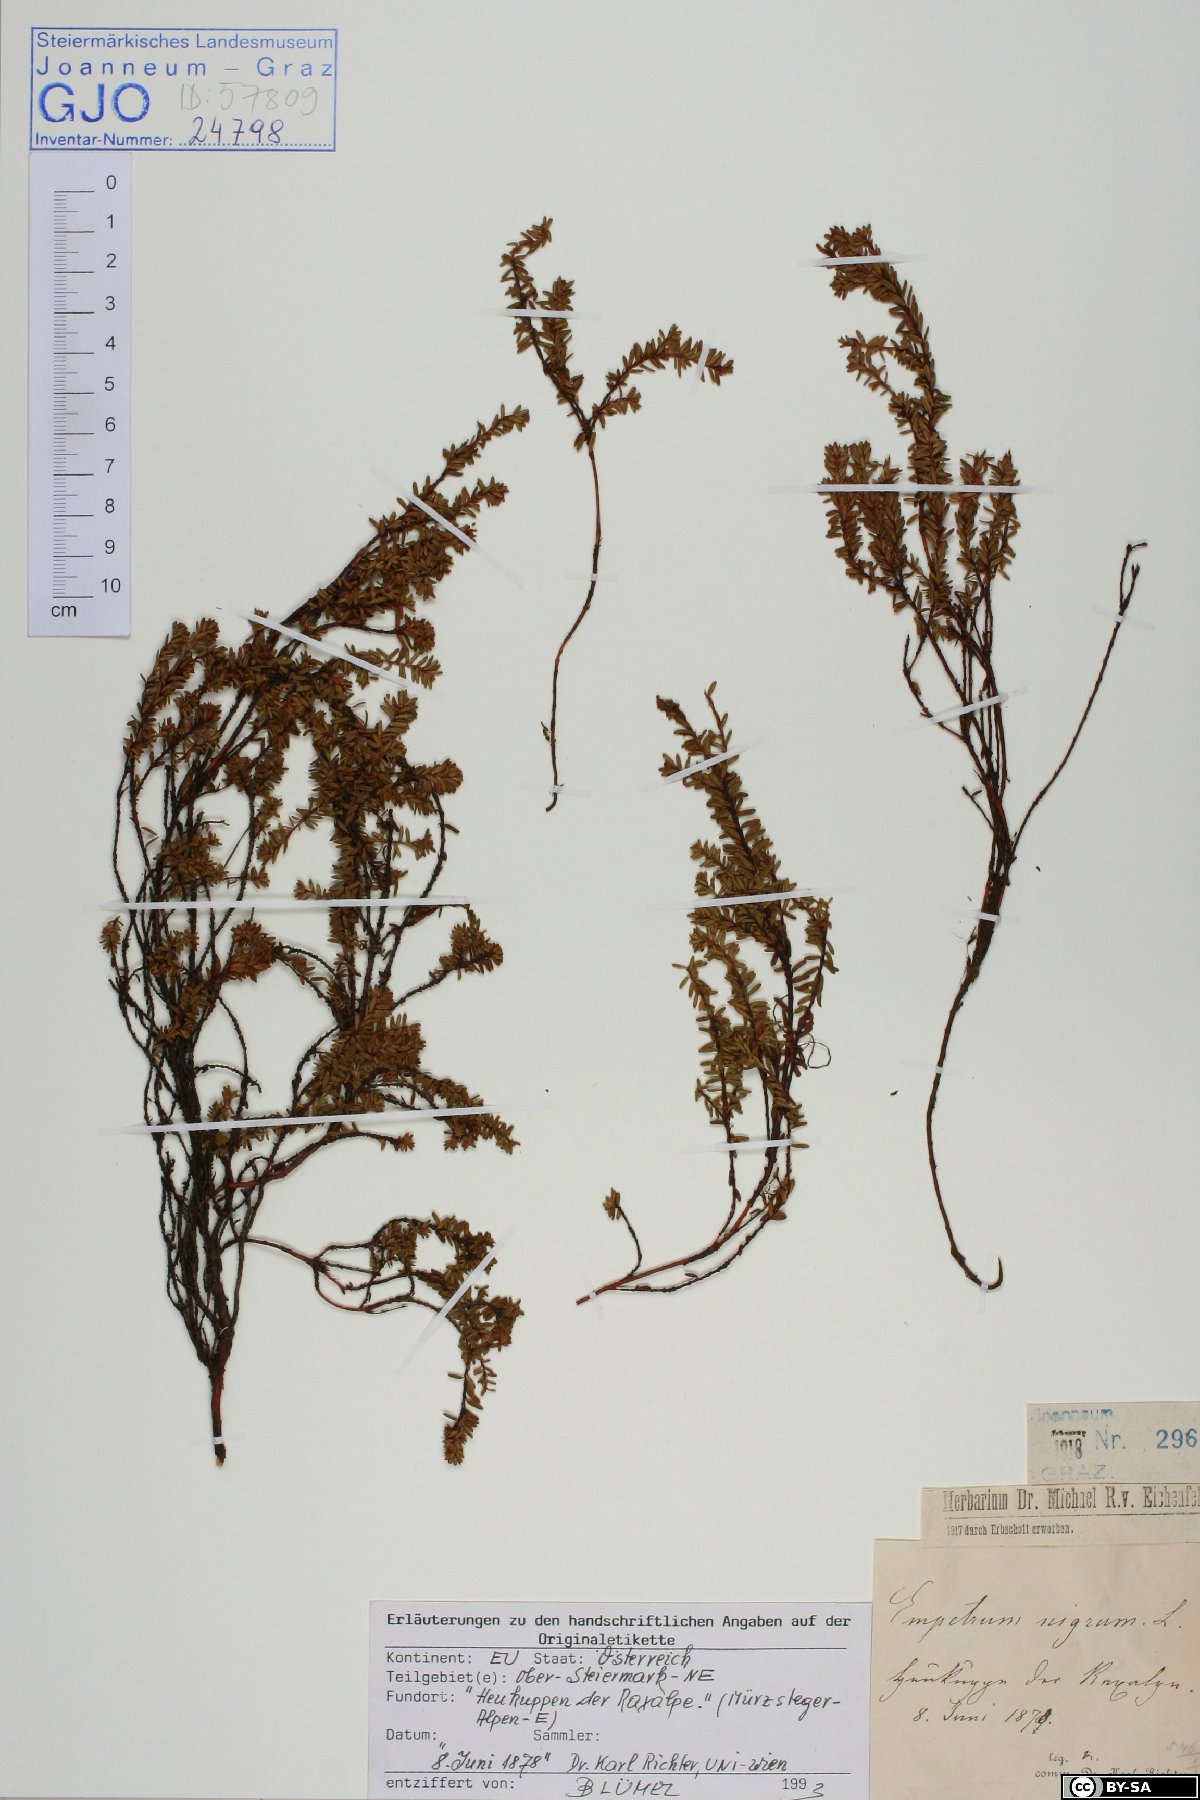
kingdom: Plantae
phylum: Tracheophyta
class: Magnoliopsida
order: Ericales
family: Ericaceae
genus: Empetrum
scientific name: Empetrum nigrum
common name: Black crowberry
